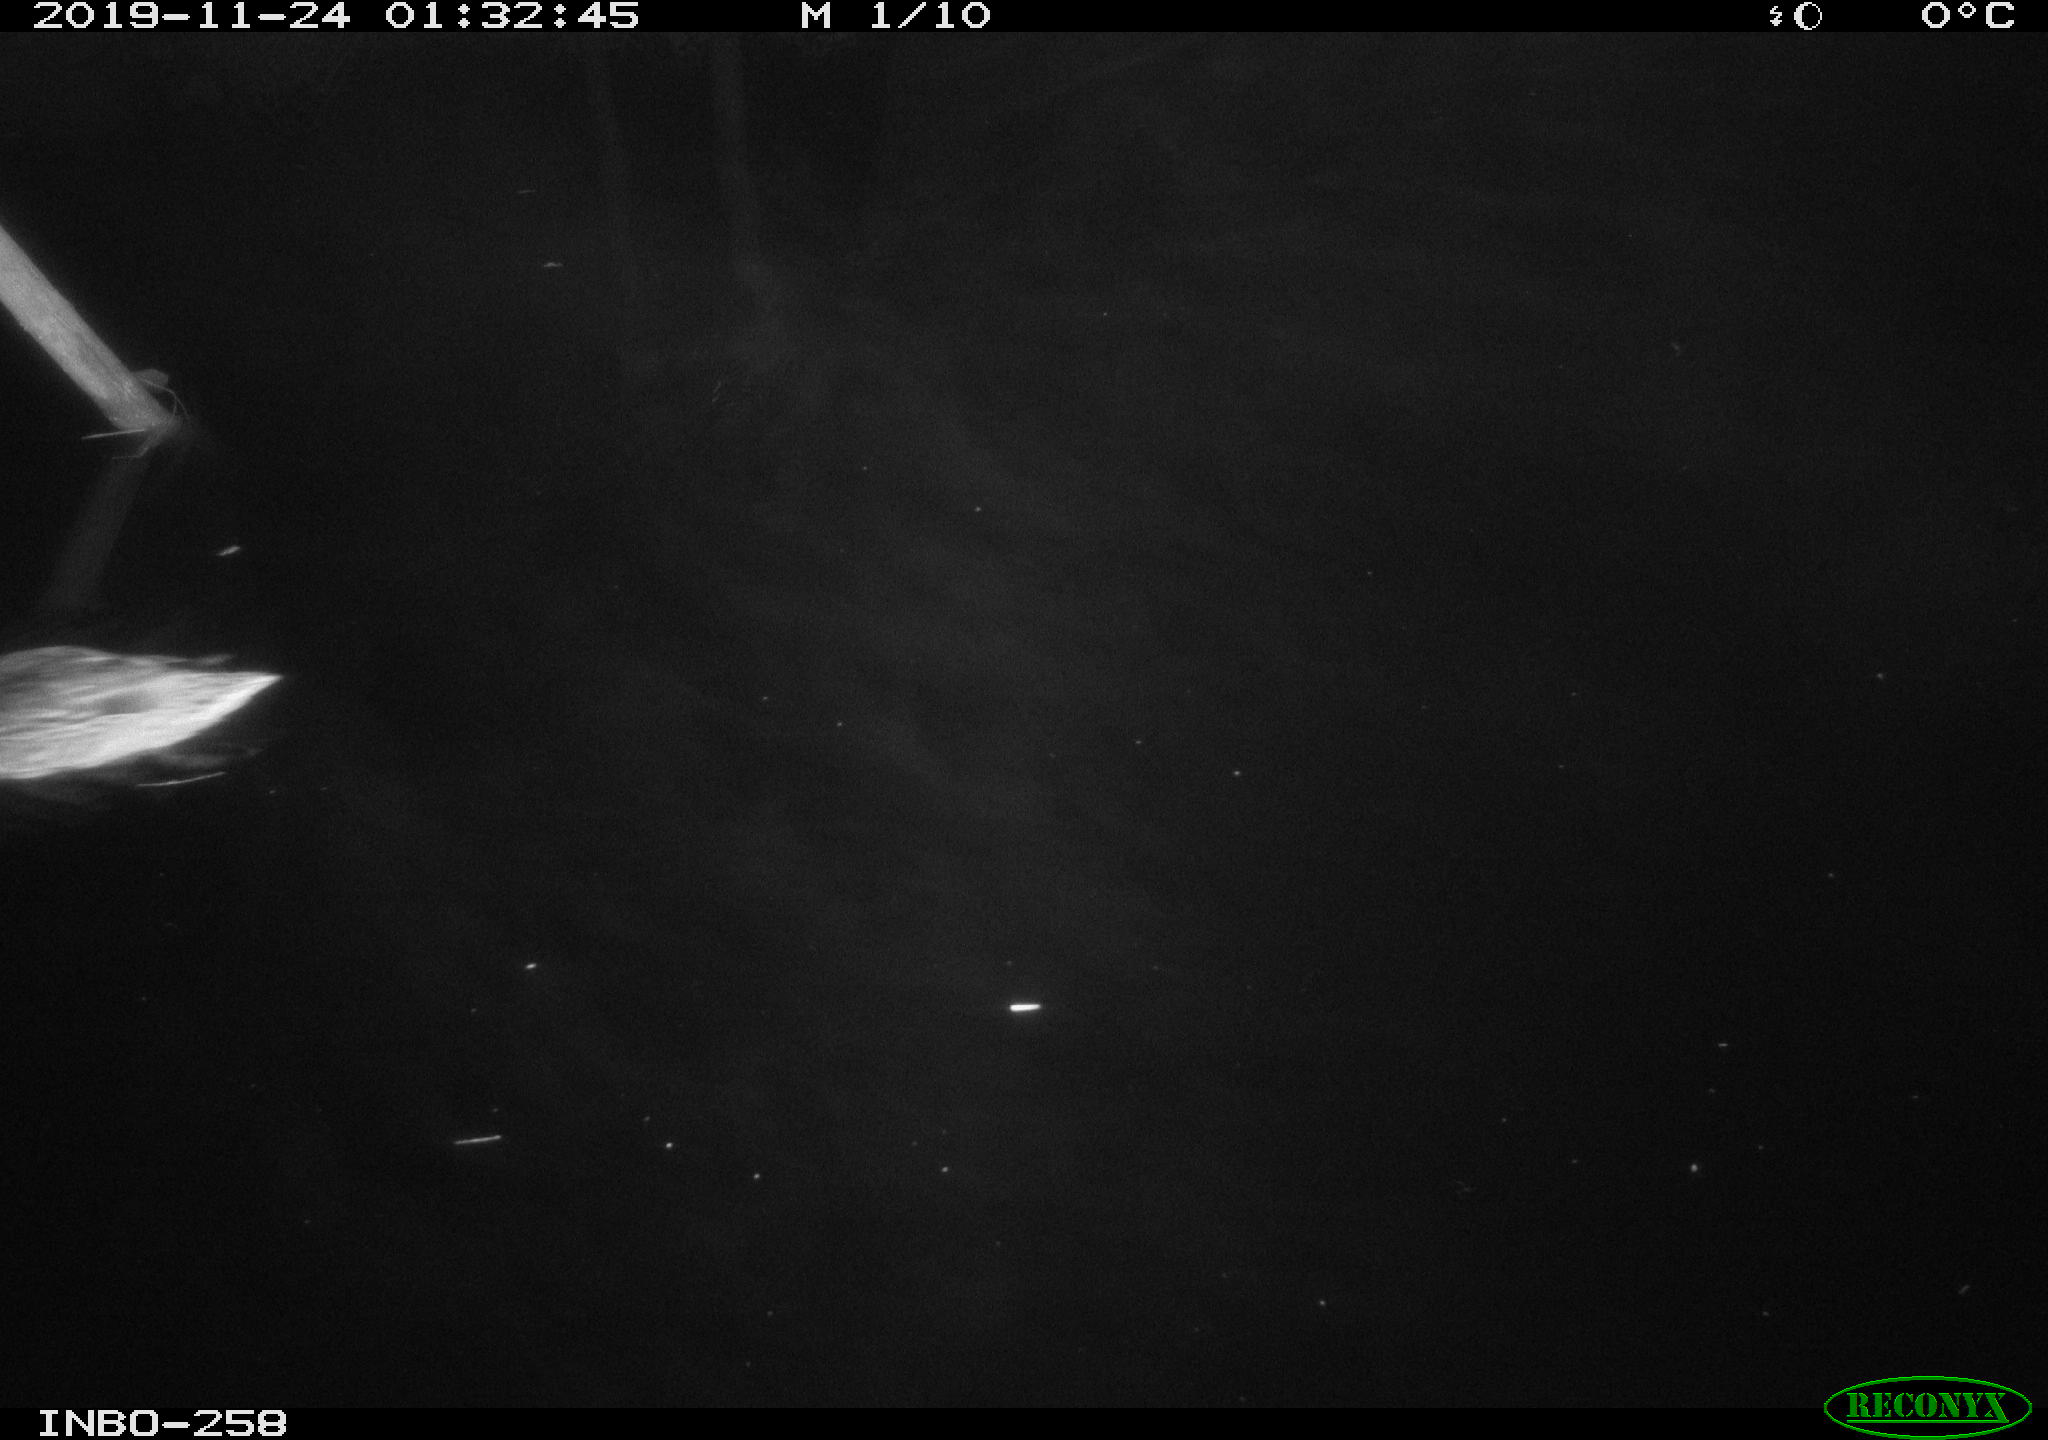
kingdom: Animalia
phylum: Chordata
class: Aves
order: Anseriformes
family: Anatidae
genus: Anas
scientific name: Anas platyrhynchos
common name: Mallard
